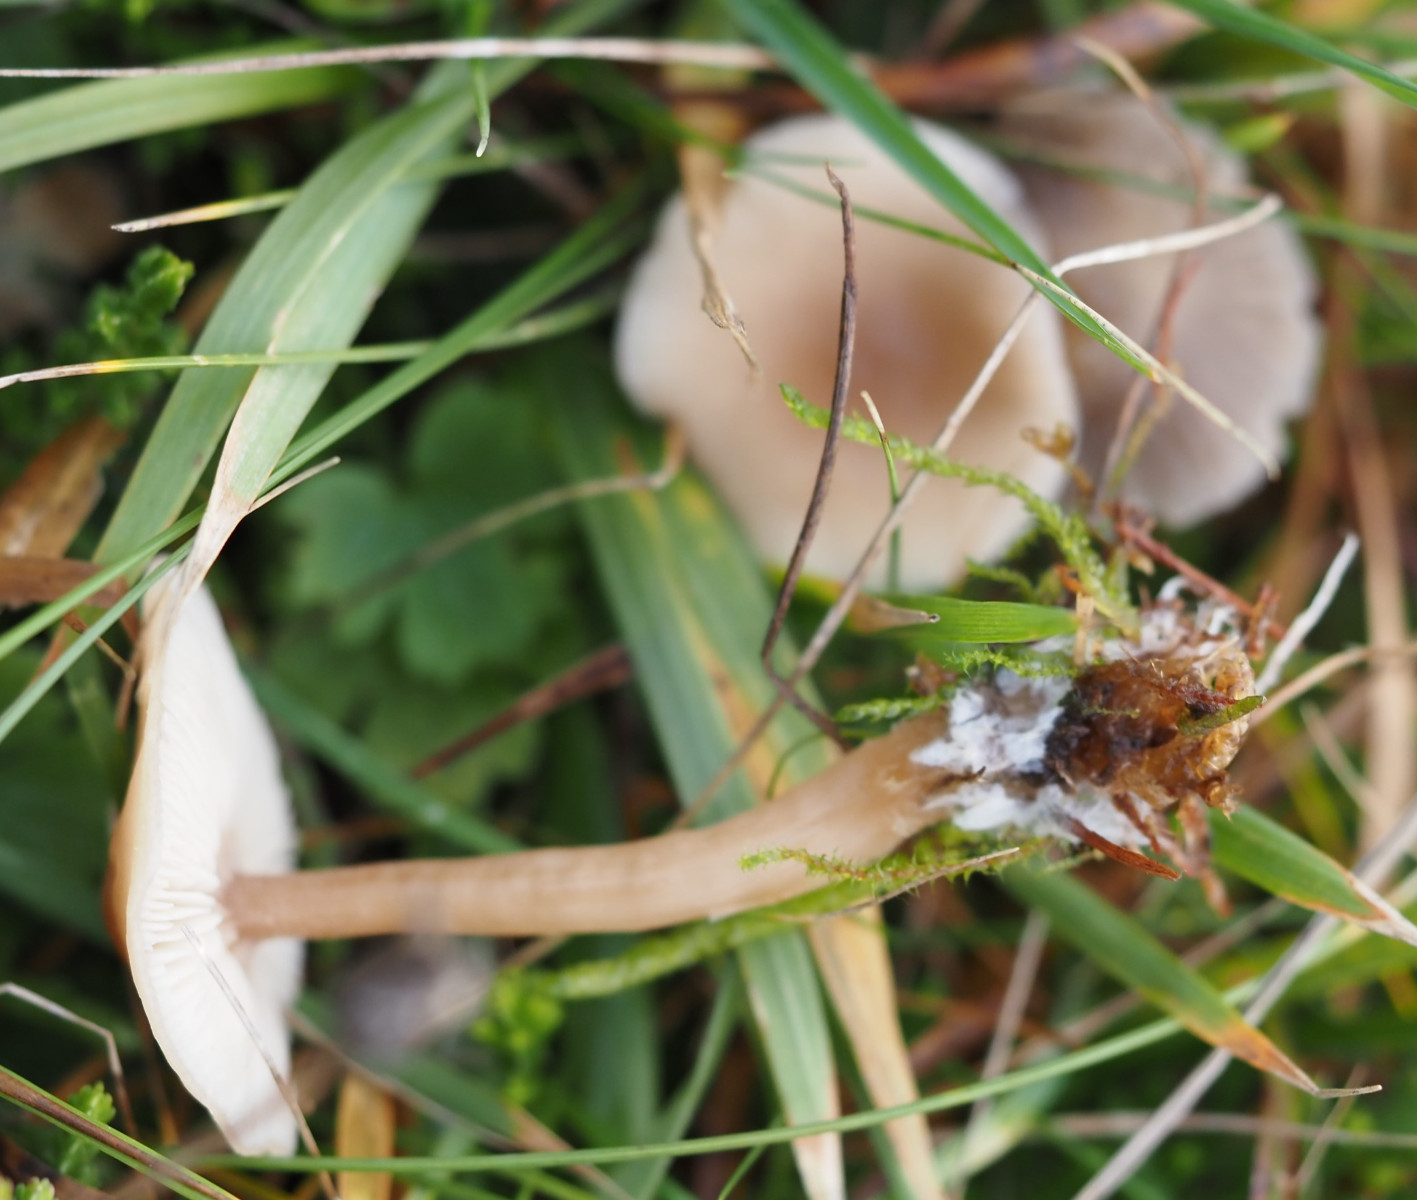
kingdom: Fungi
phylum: Basidiomycota
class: Agaricomycetes
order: Agaricales
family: Tricholomataceae
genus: Clitocybe
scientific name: Clitocybe fragrans
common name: vellugtende tragthat
